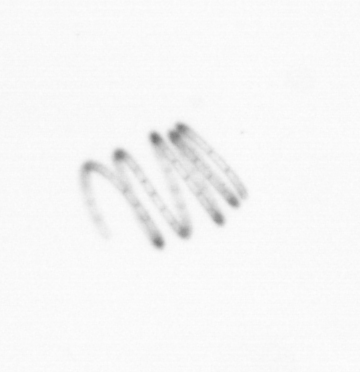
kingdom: Chromista
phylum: Ochrophyta
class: Bacillariophyceae
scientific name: Bacillariophyceae
